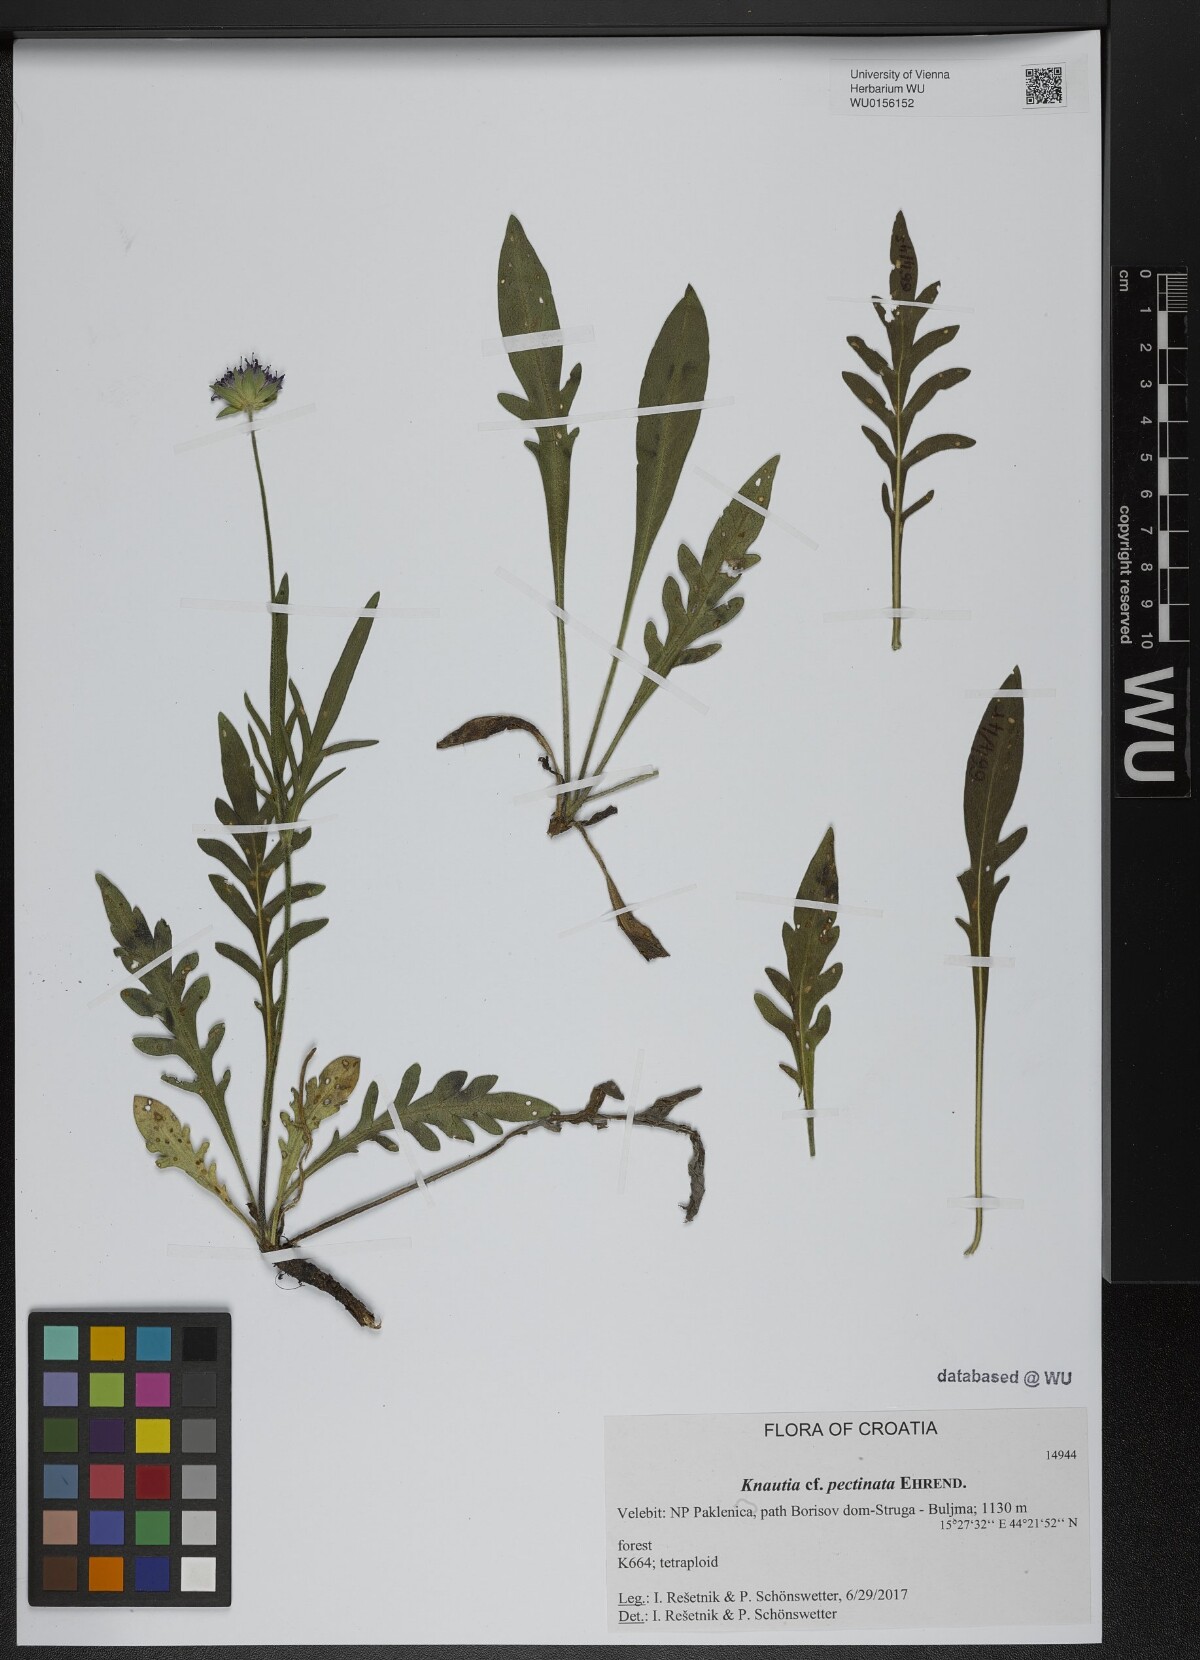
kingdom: Plantae
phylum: Tracheophyta
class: Magnoliopsida
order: Dipsacales
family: Caprifoliaceae
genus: Knautia
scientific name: Knautia pectinata
